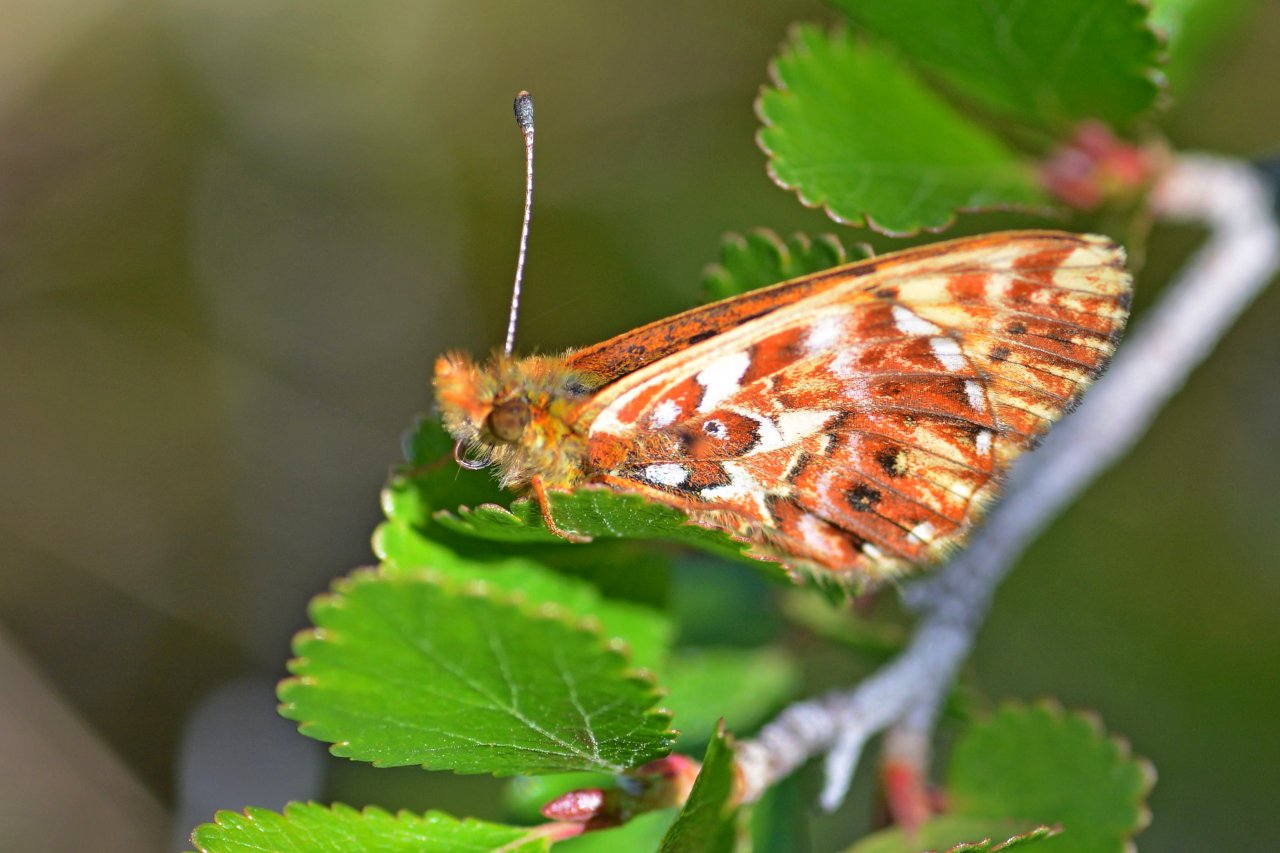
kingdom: Animalia
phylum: Arthropoda
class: Insecta
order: Lepidoptera
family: Nymphalidae
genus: Boloria
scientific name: Boloria freija
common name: Freija Fritillary
